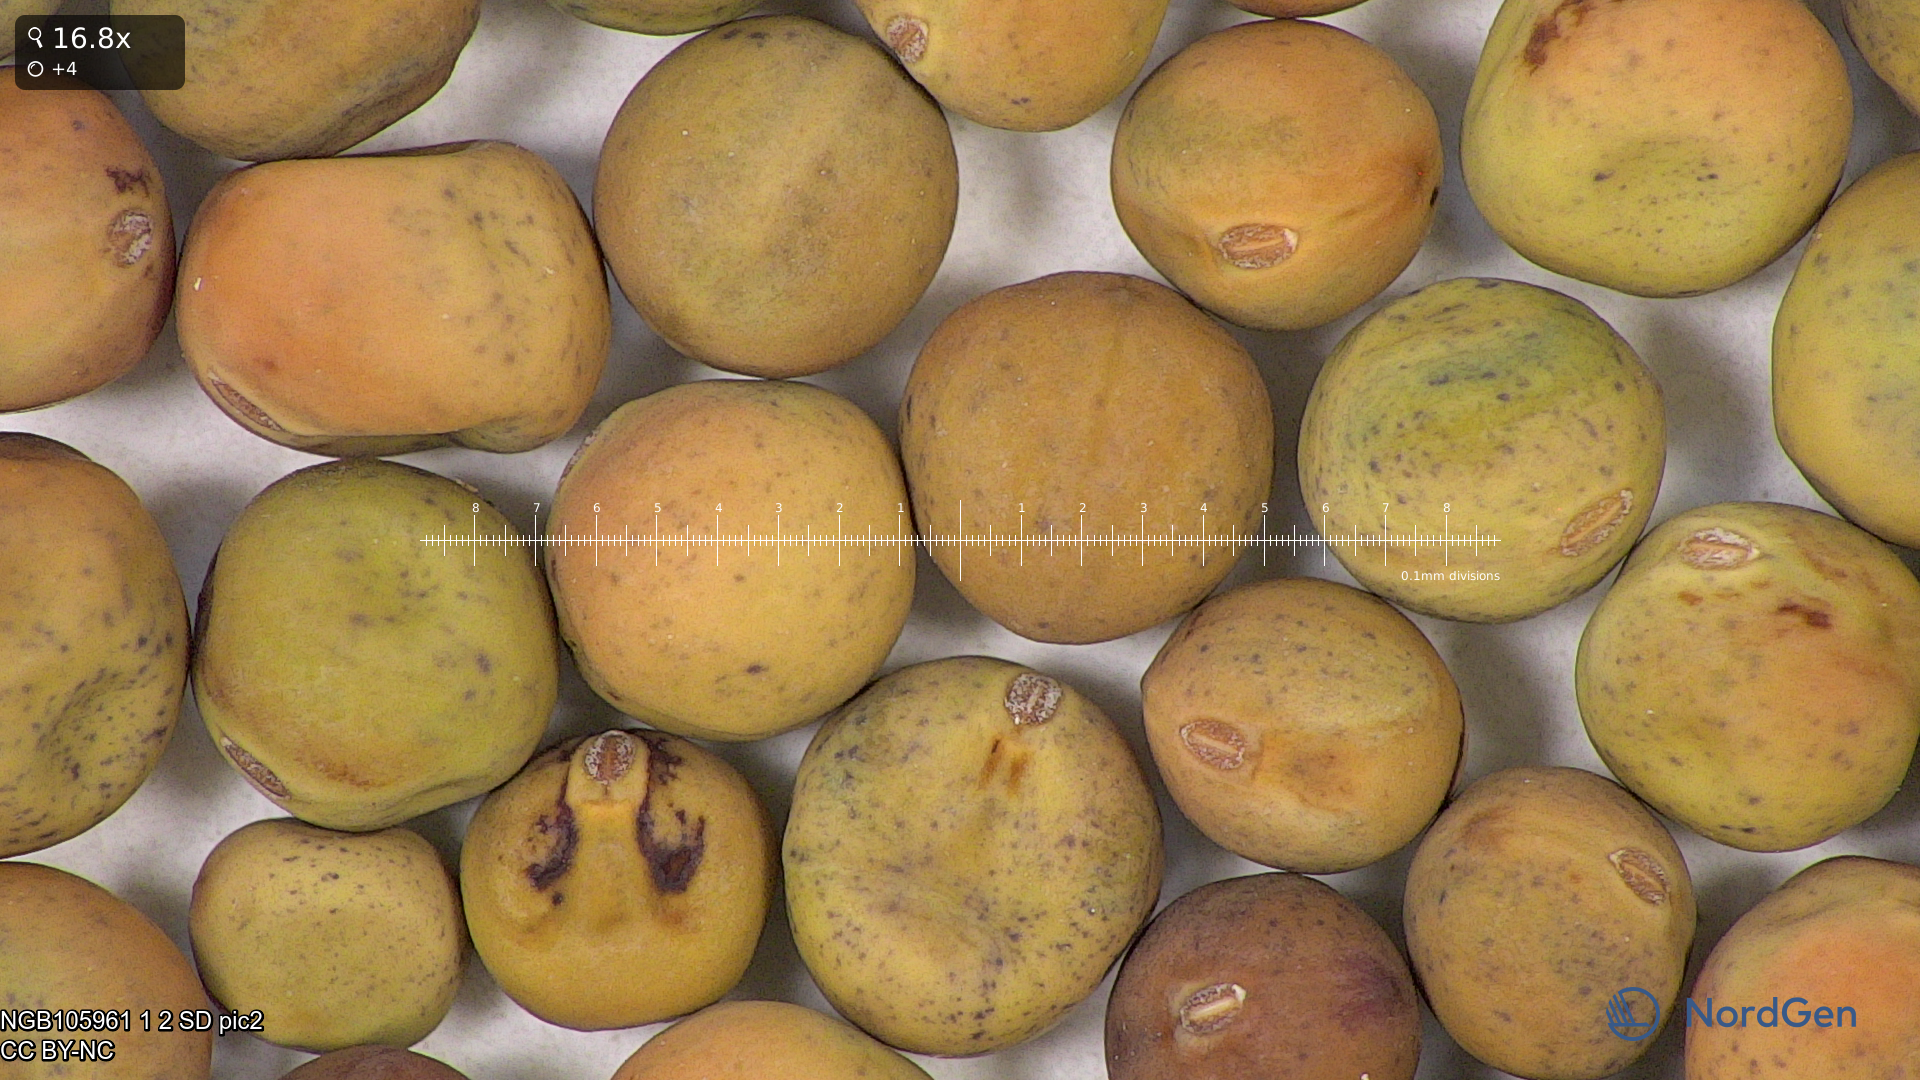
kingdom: Plantae
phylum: Tracheophyta
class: Magnoliopsida
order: Fabales
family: Fabaceae
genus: Lathyrus
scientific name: Lathyrus oleraceus
